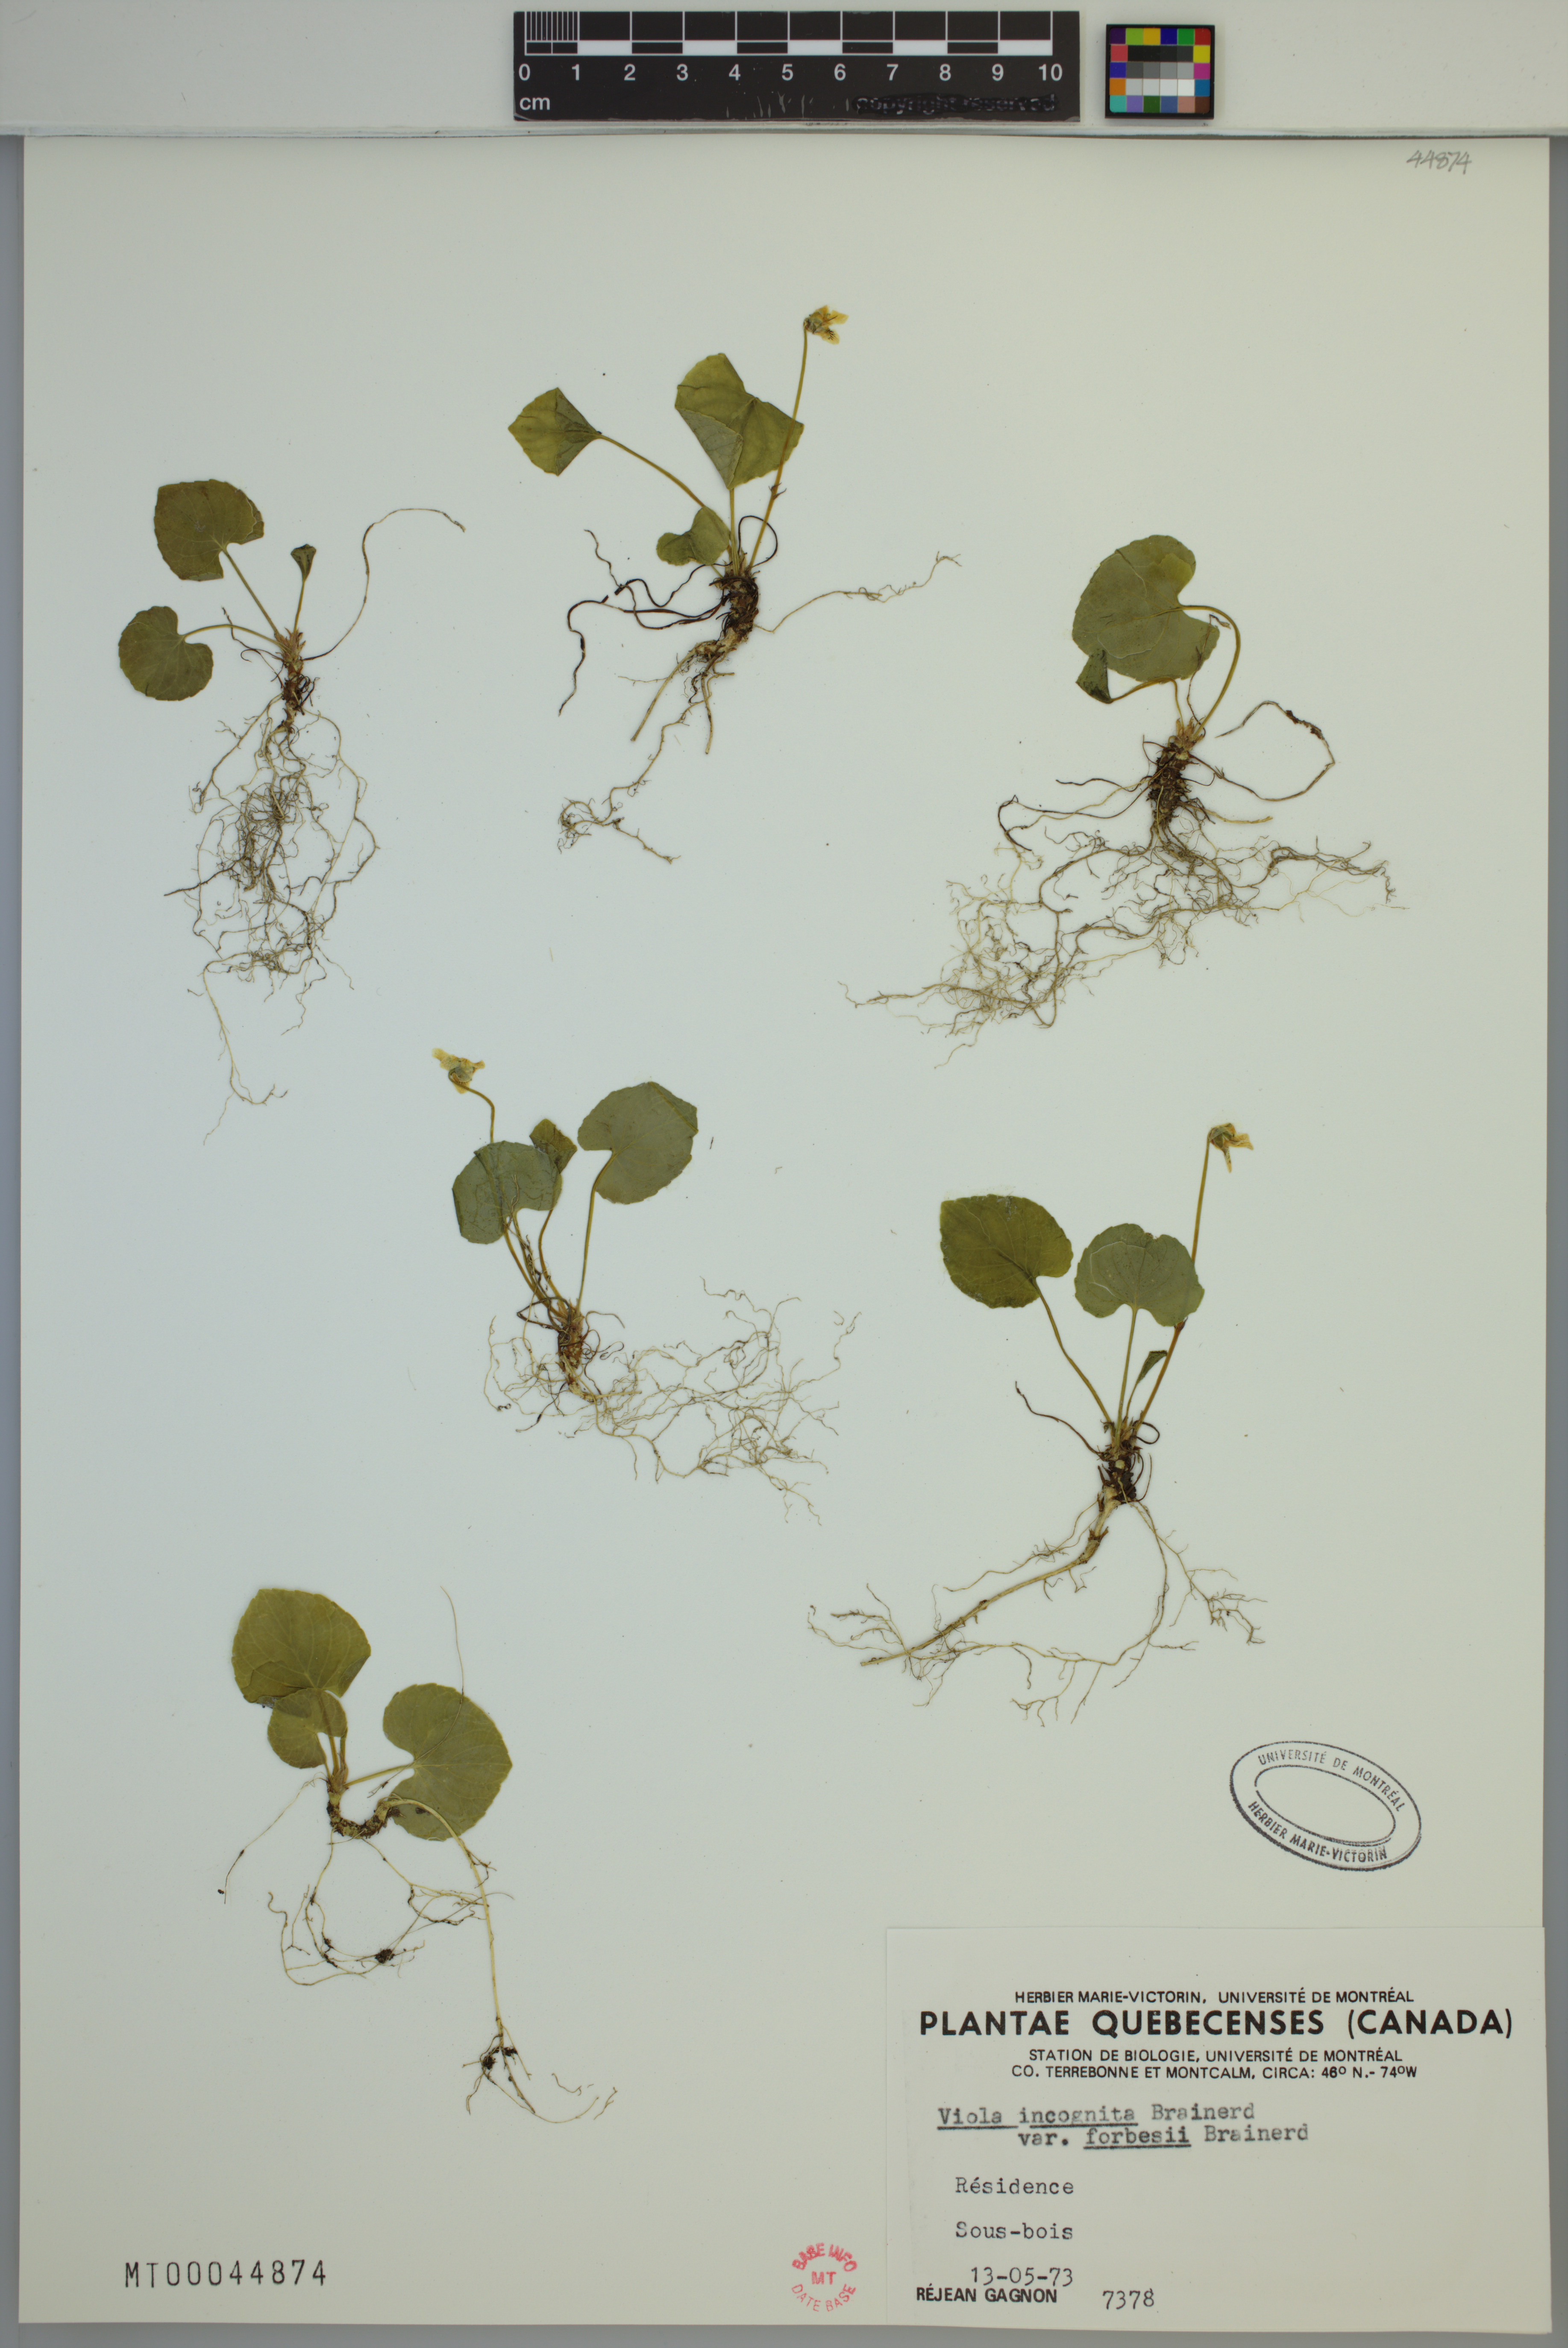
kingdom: Plantae
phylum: Tracheophyta
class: Magnoliopsida
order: Malpighiales
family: Violaceae
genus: Viola
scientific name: Viola blanda
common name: Sweet white violet
